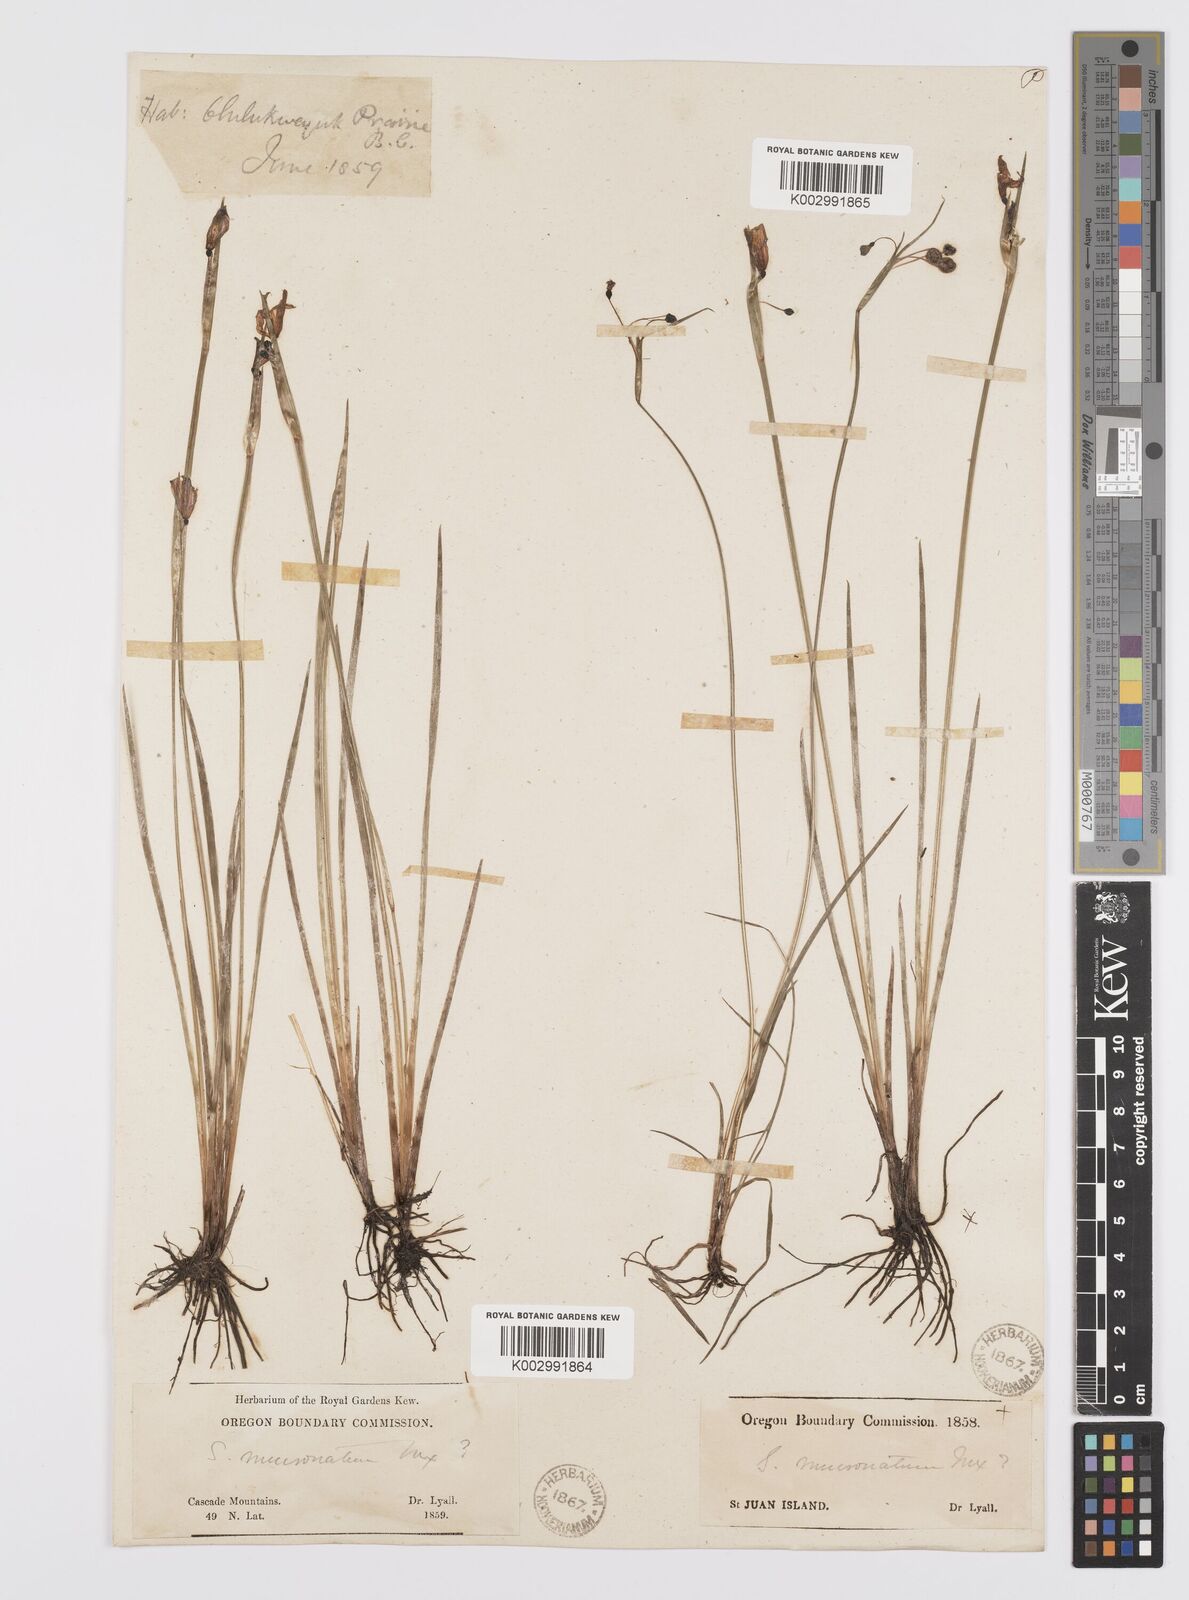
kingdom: Plantae
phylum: Tracheophyta
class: Liliopsida
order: Asparagales
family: Iridaceae
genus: Sisyrinchium
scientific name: Sisyrinchium bermudiana
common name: Blue-eyed-grass
